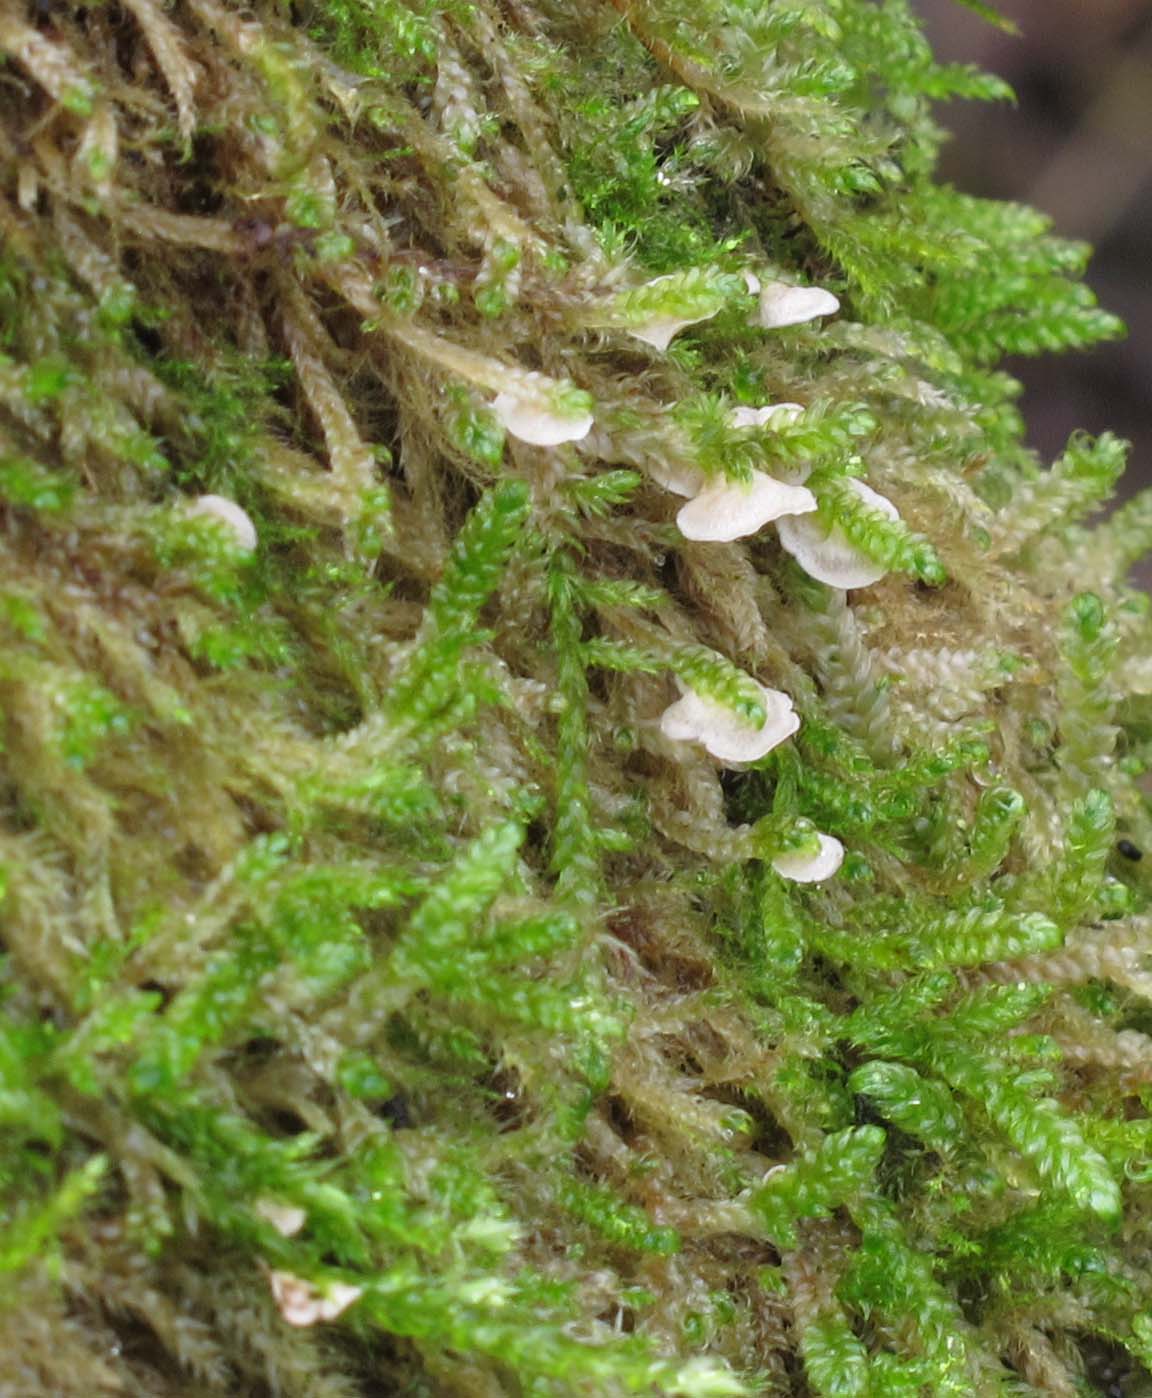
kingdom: Fungi
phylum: Basidiomycota
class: Agaricomycetes
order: Agaricales
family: Hygrophoraceae
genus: Arrhenia
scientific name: Arrhenia retiruga
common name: lille fontænehat
